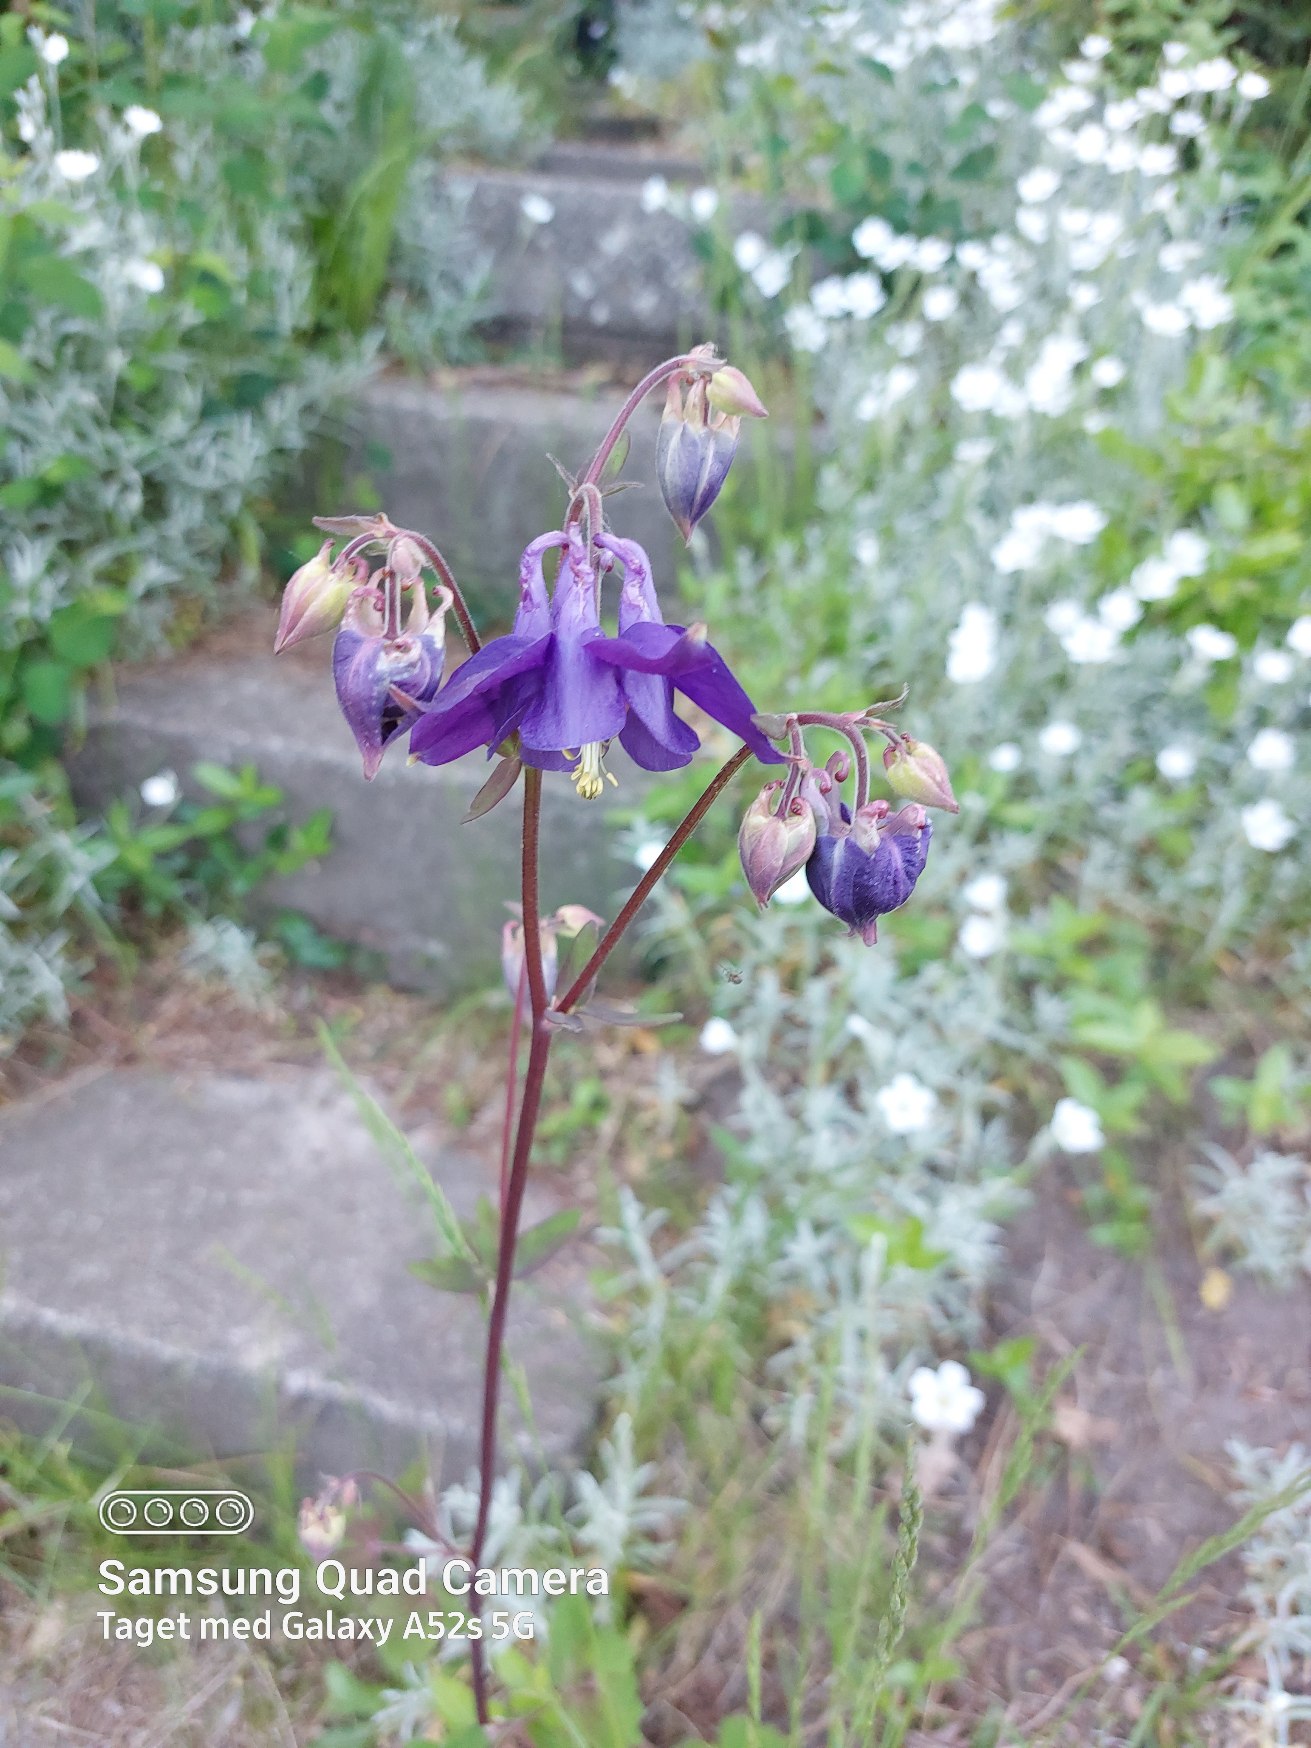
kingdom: Plantae
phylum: Tracheophyta
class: Magnoliopsida
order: Ranunculales
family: Ranunculaceae
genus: Aquilegia
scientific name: Aquilegia vulgaris
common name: Akeleje
